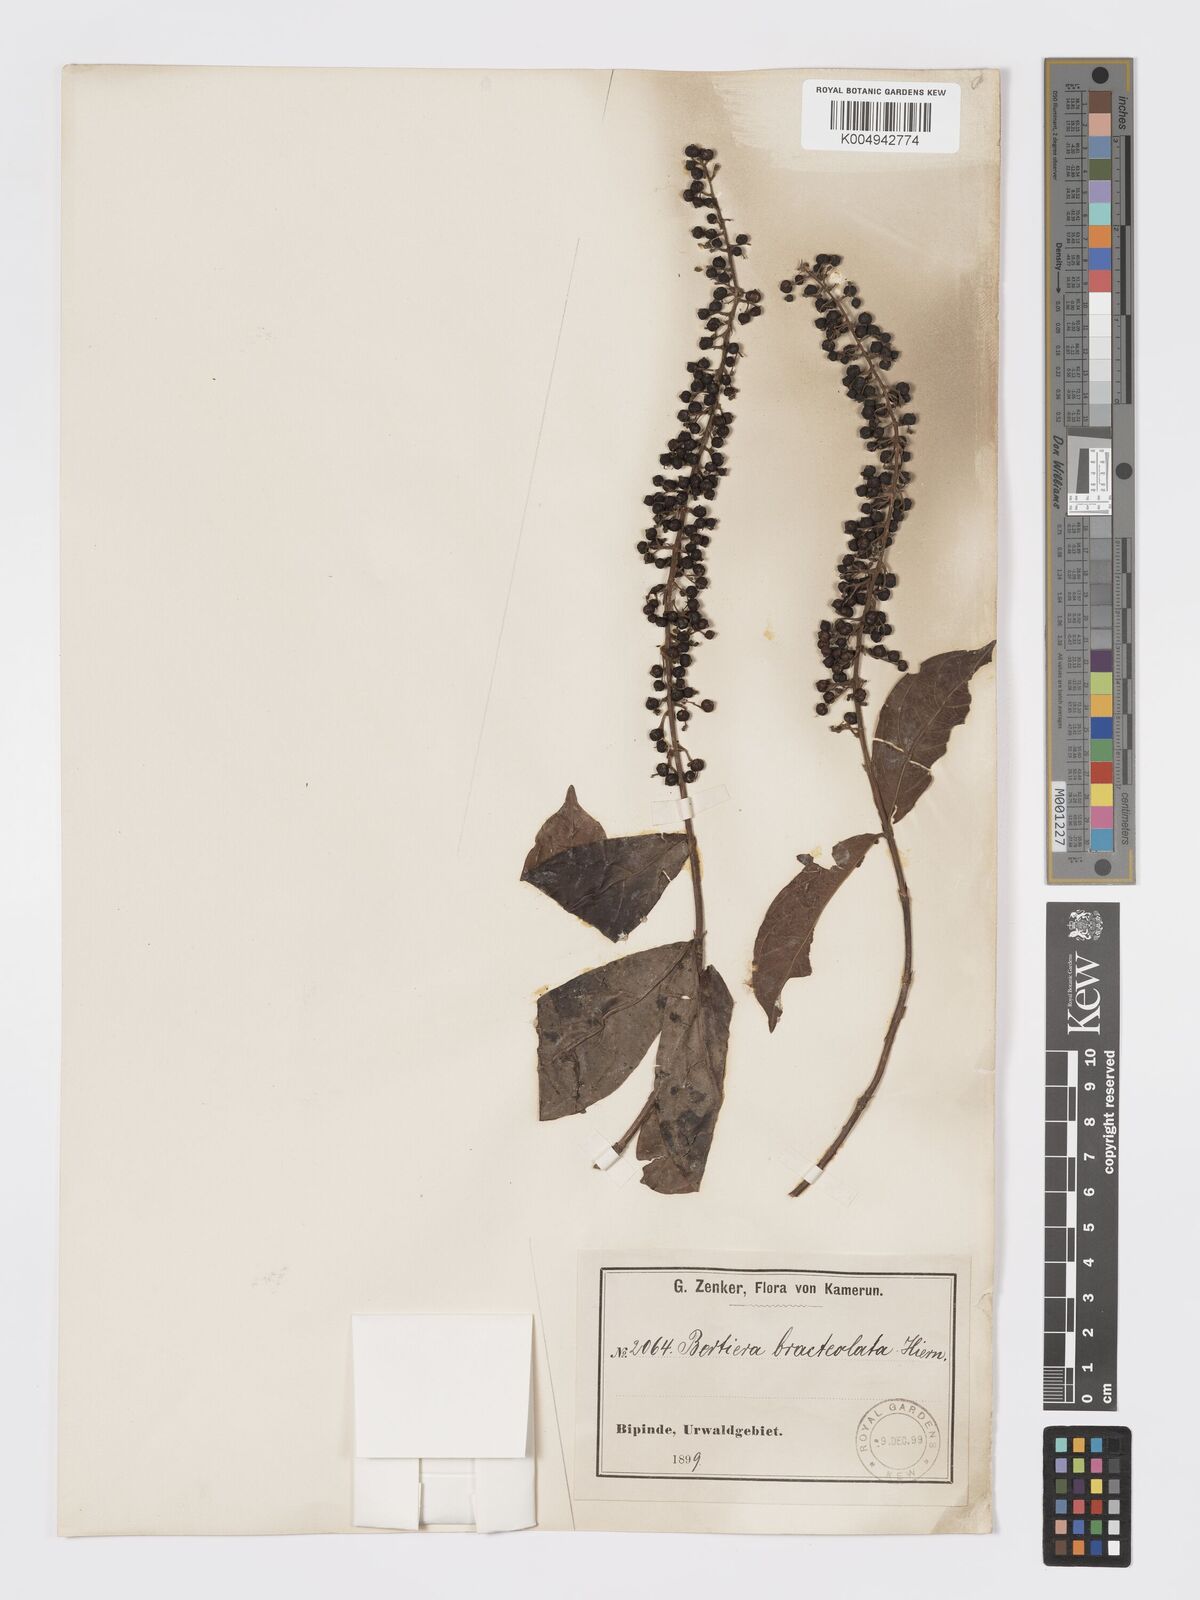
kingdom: Plantae
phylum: Tracheophyta
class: Magnoliopsida
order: Gentianales
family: Rubiaceae
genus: Bertiera
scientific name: Bertiera bracteolata
